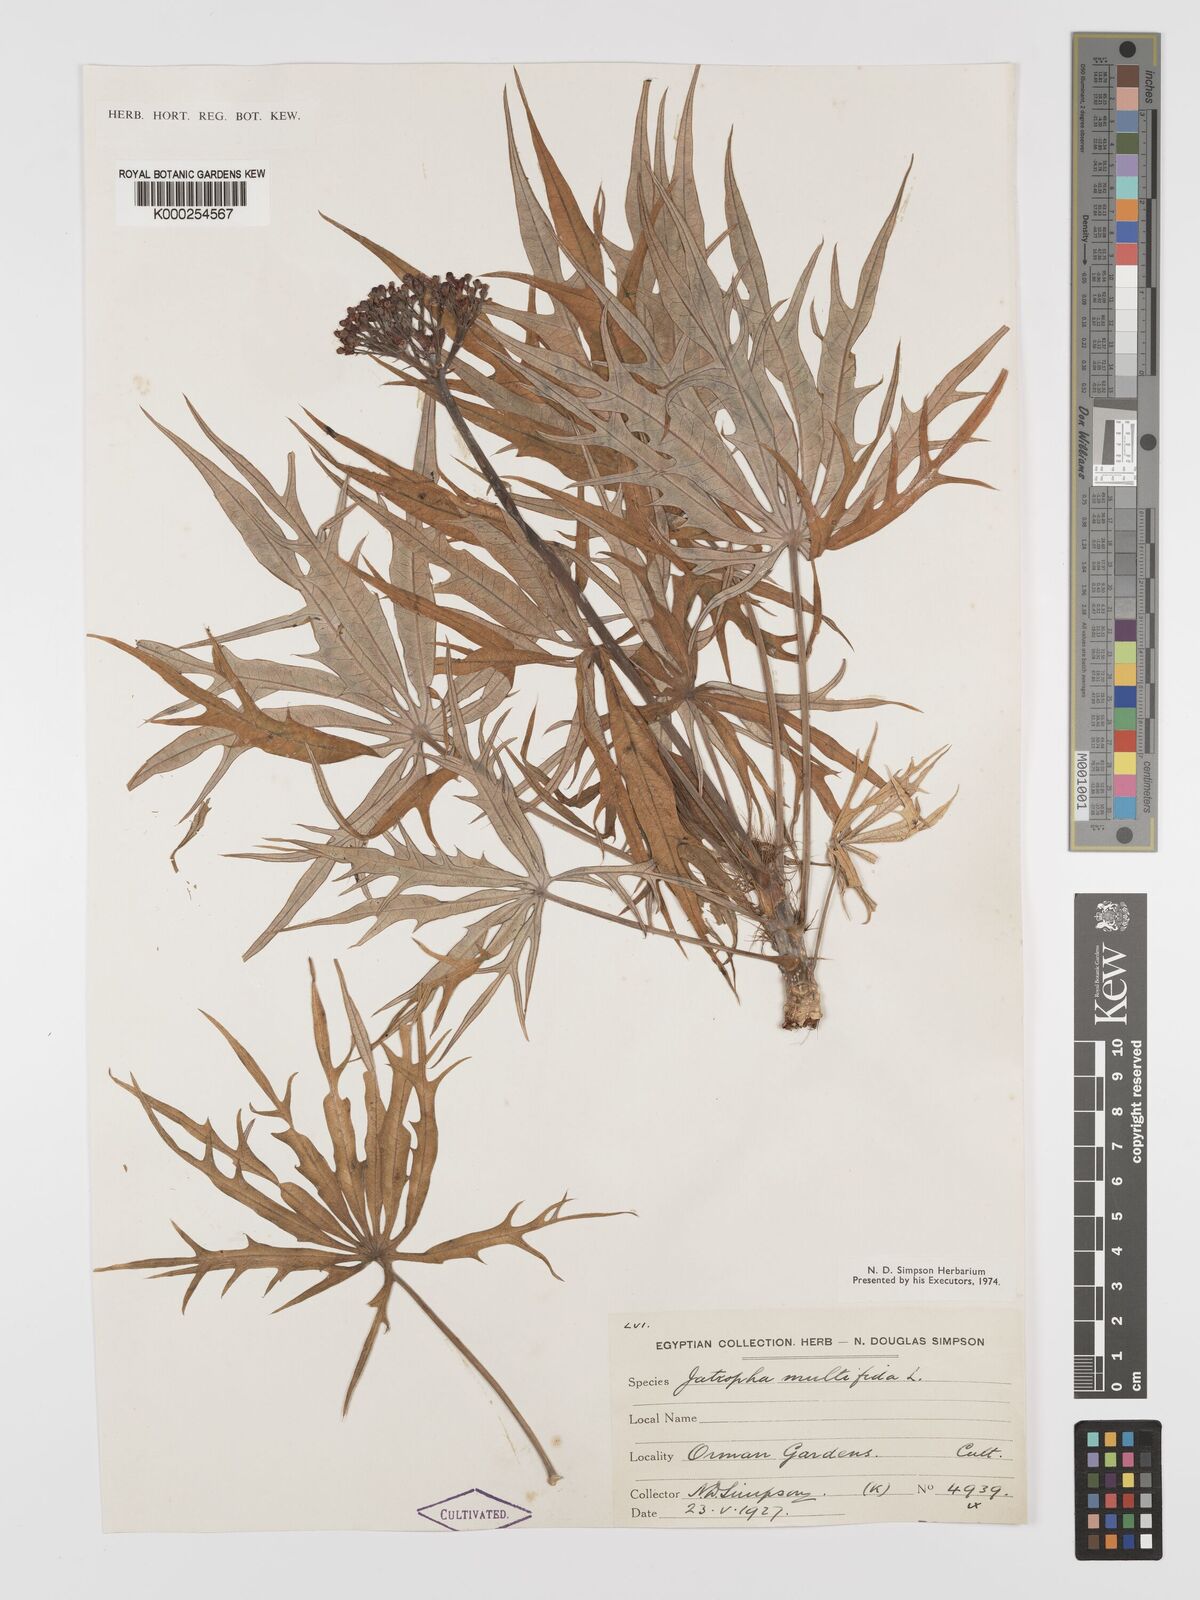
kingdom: Plantae
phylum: Tracheophyta
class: Magnoliopsida
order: Malpighiales
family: Euphorbiaceae
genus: Jatropha
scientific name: Jatropha multifida
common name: Coralbush
